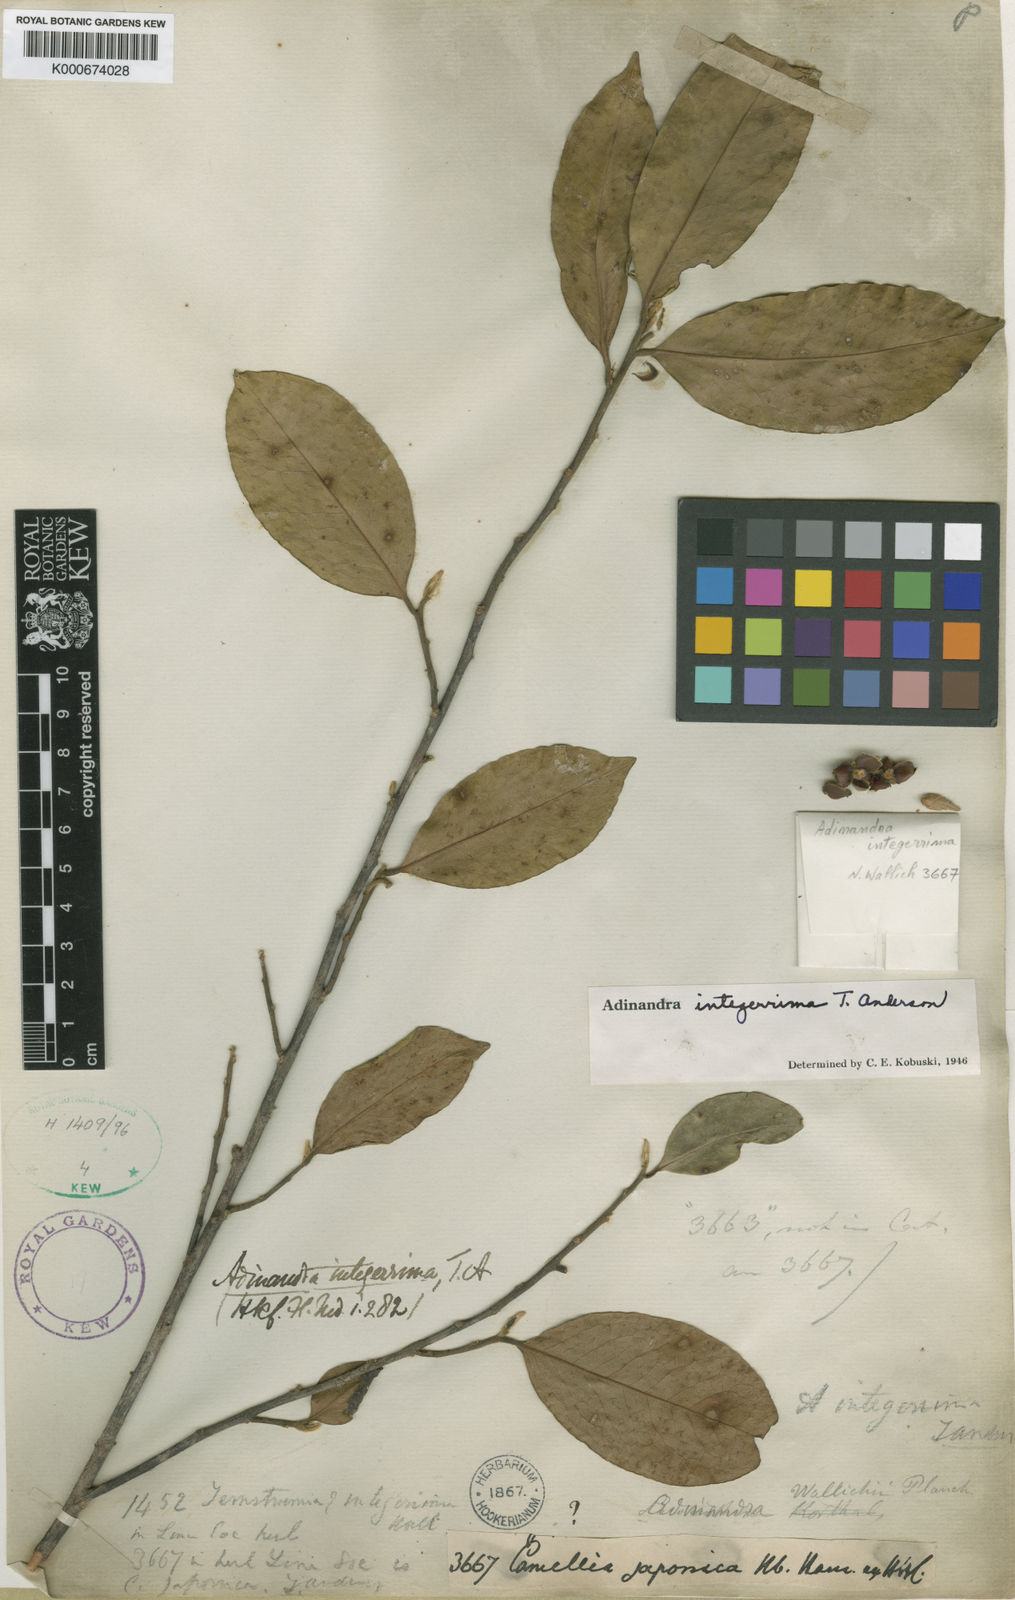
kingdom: Plantae
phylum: Tracheophyta
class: Magnoliopsida
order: Ericales
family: Pentaphylacaceae
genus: Adinandra
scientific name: Adinandra
